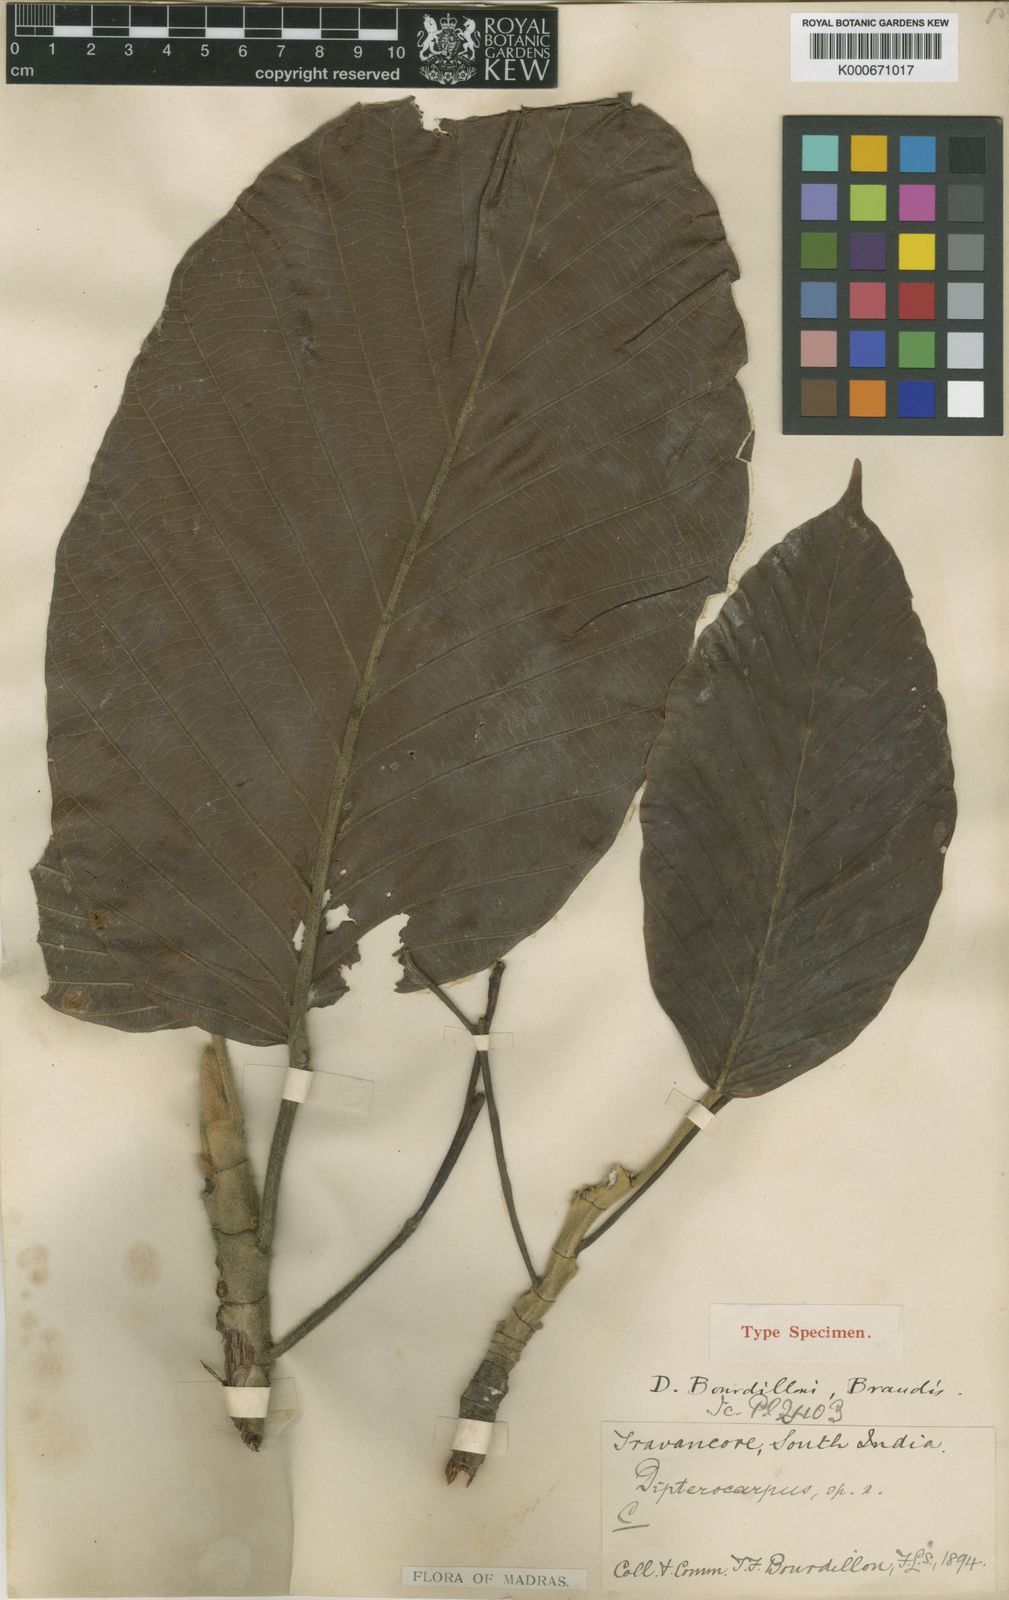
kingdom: Plantae
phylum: Tracheophyta
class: Magnoliopsida
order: Malvales
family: Dipterocarpaceae
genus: Dipterocarpus
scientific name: Dipterocarpus bourdillonii
